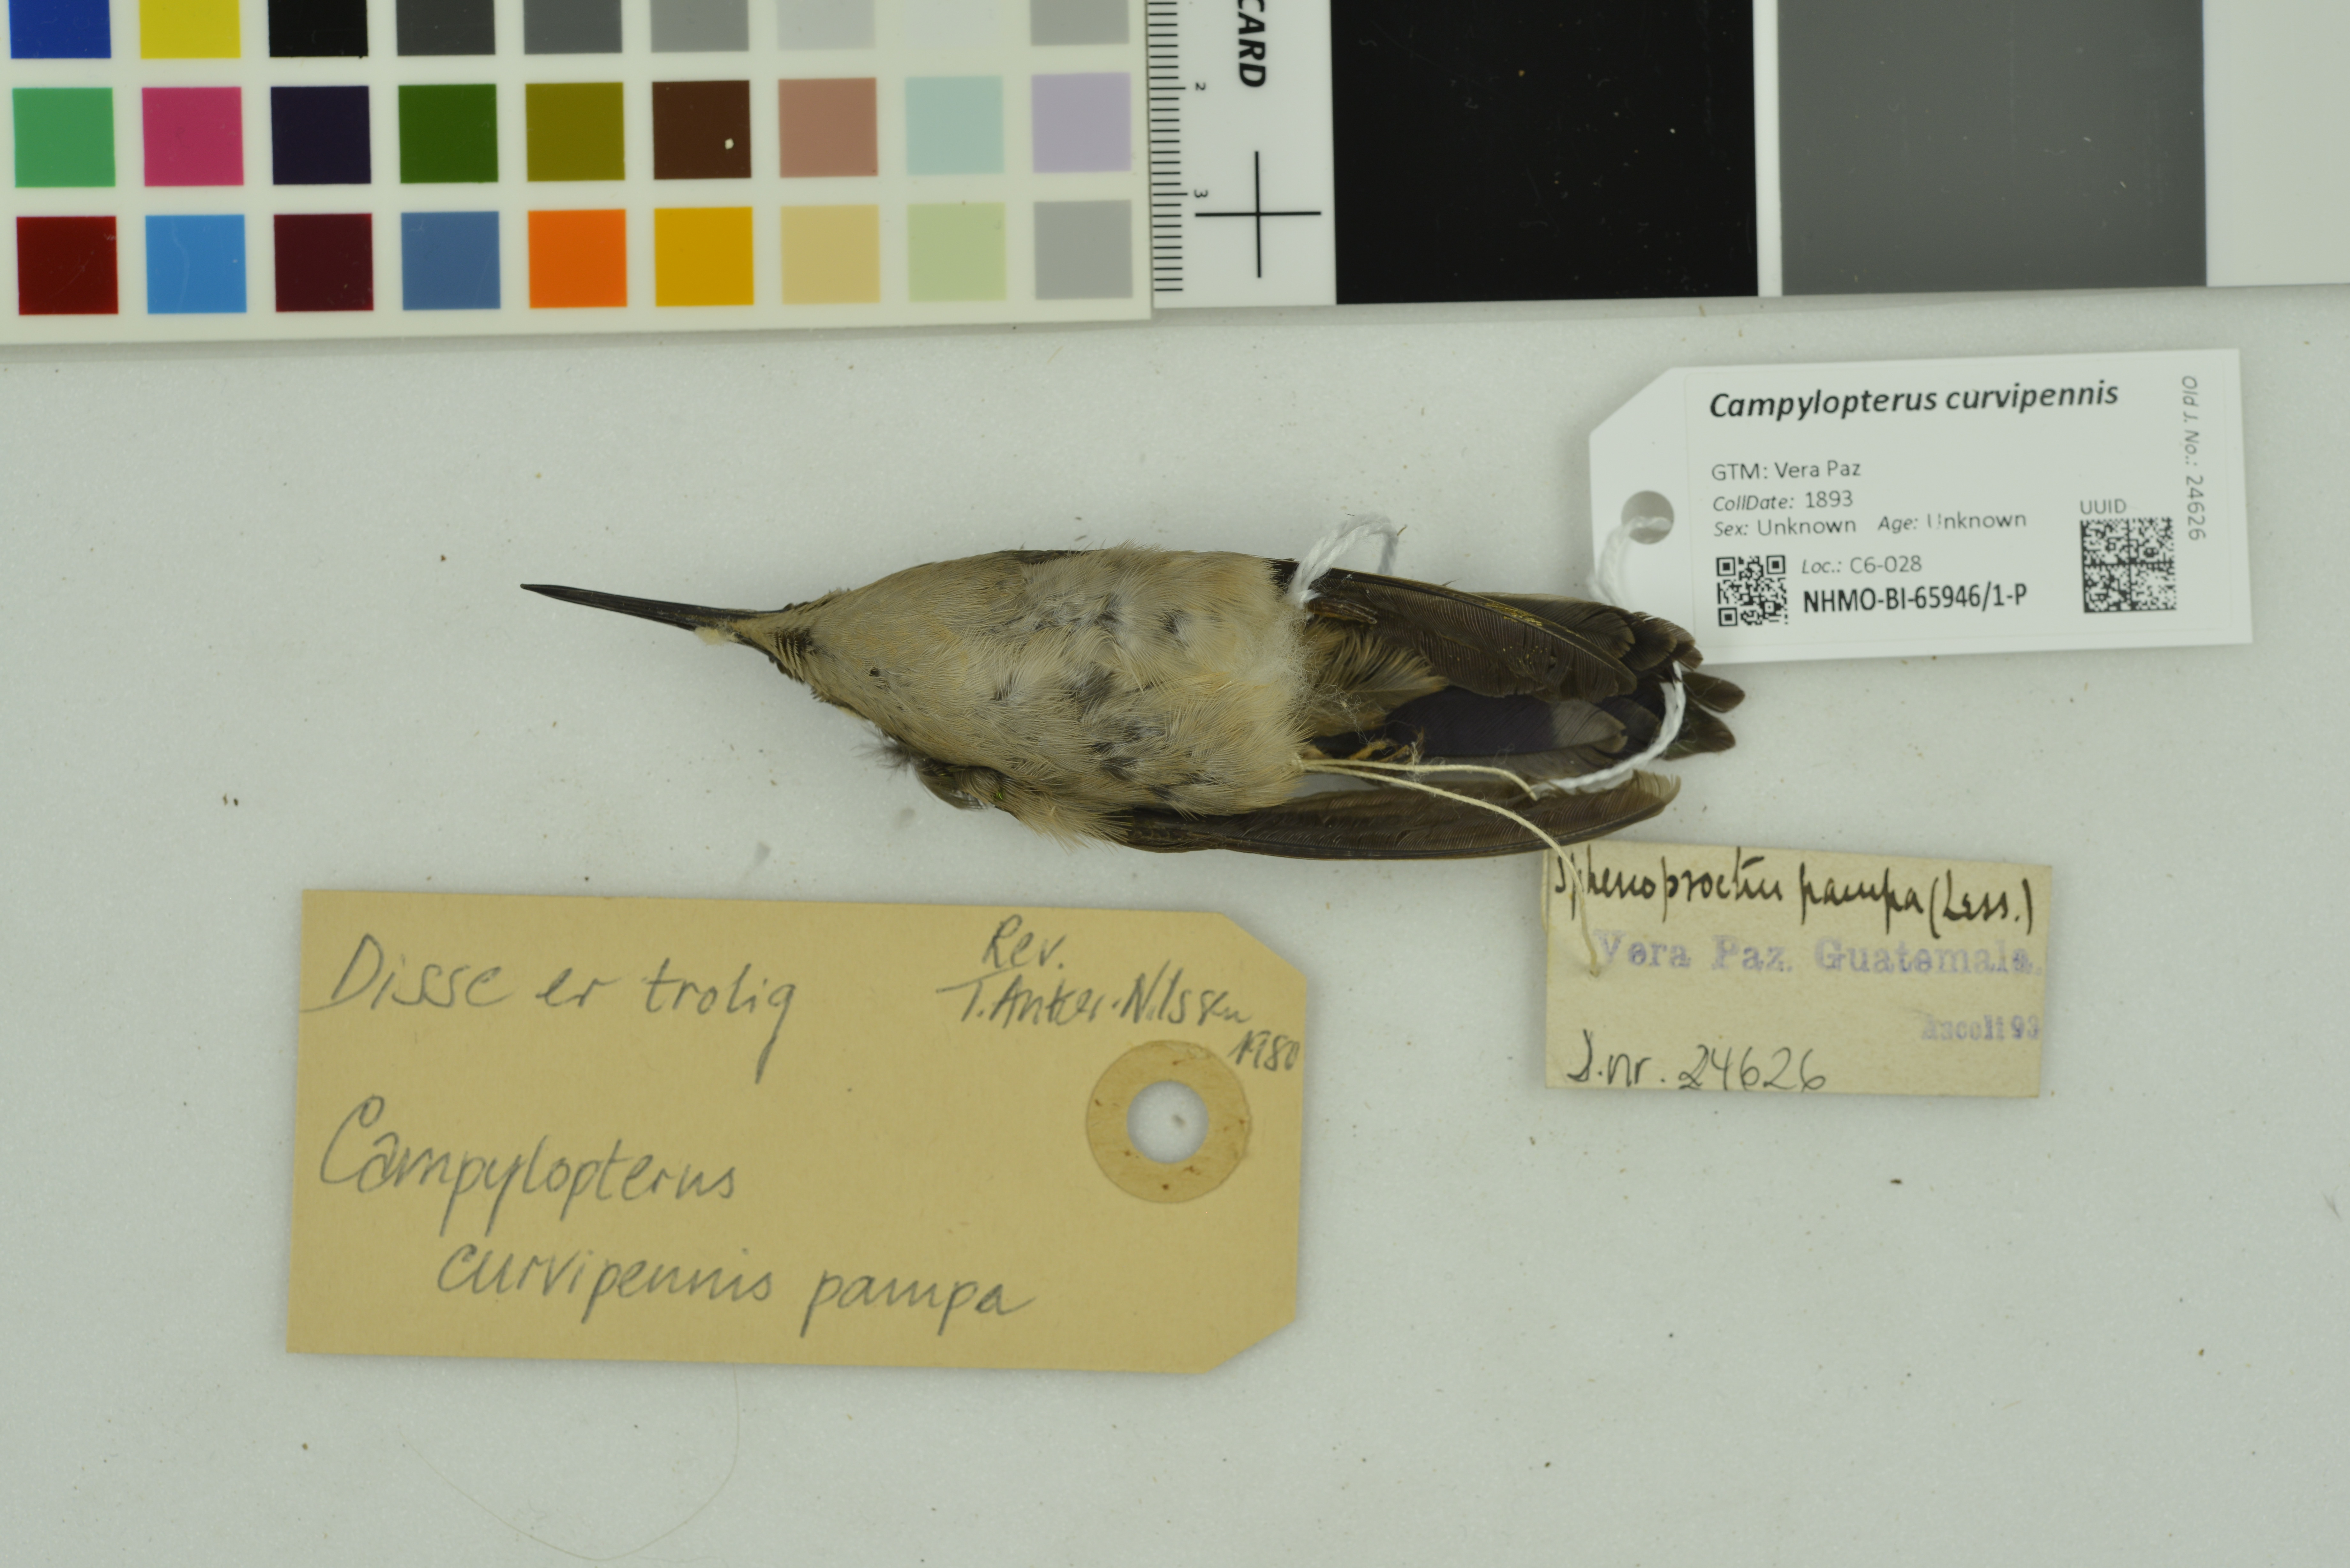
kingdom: Animalia
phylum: Chordata
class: Aves
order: Apodiformes
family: Trochilidae
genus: Pampa
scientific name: Pampa curvipennis
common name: Curve-winged sabrewing
